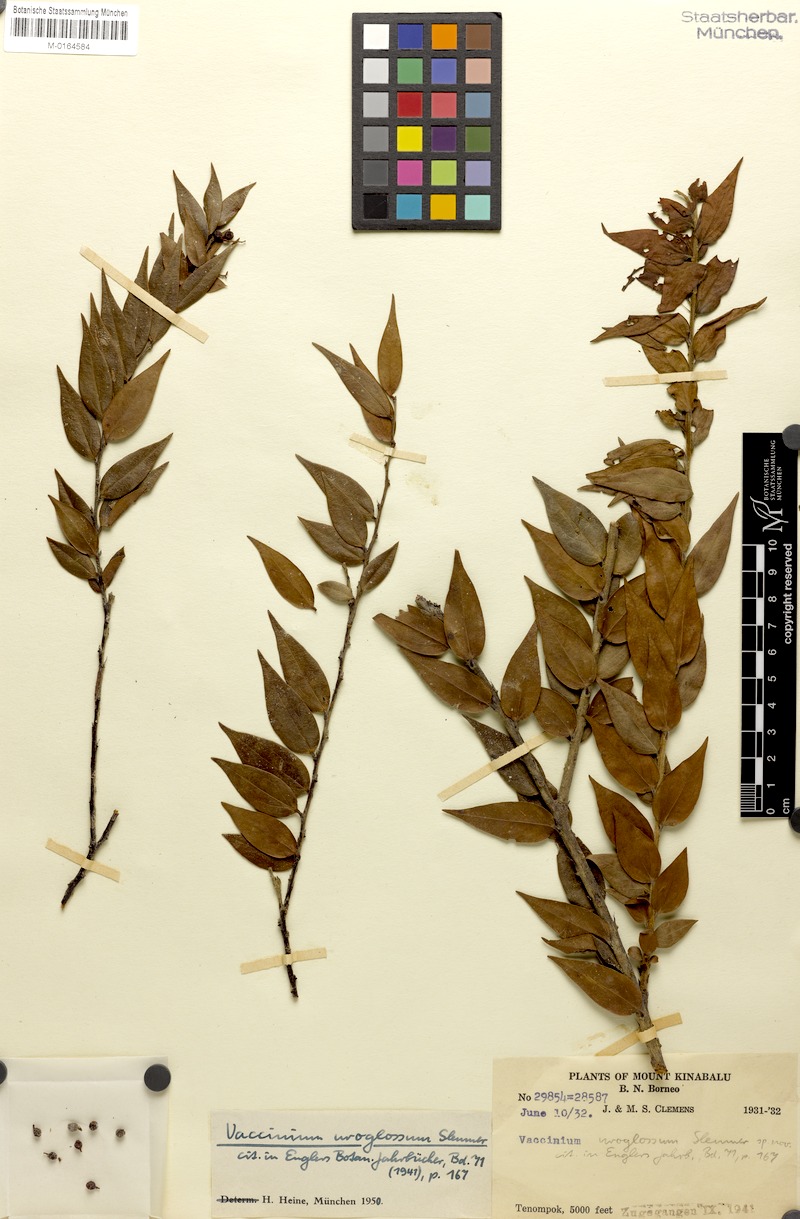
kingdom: Plantae
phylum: Tracheophyta
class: Magnoliopsida
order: Ericales
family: Ericaceae
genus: Rigiolepis
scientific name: Rigiolepis uroglossa
